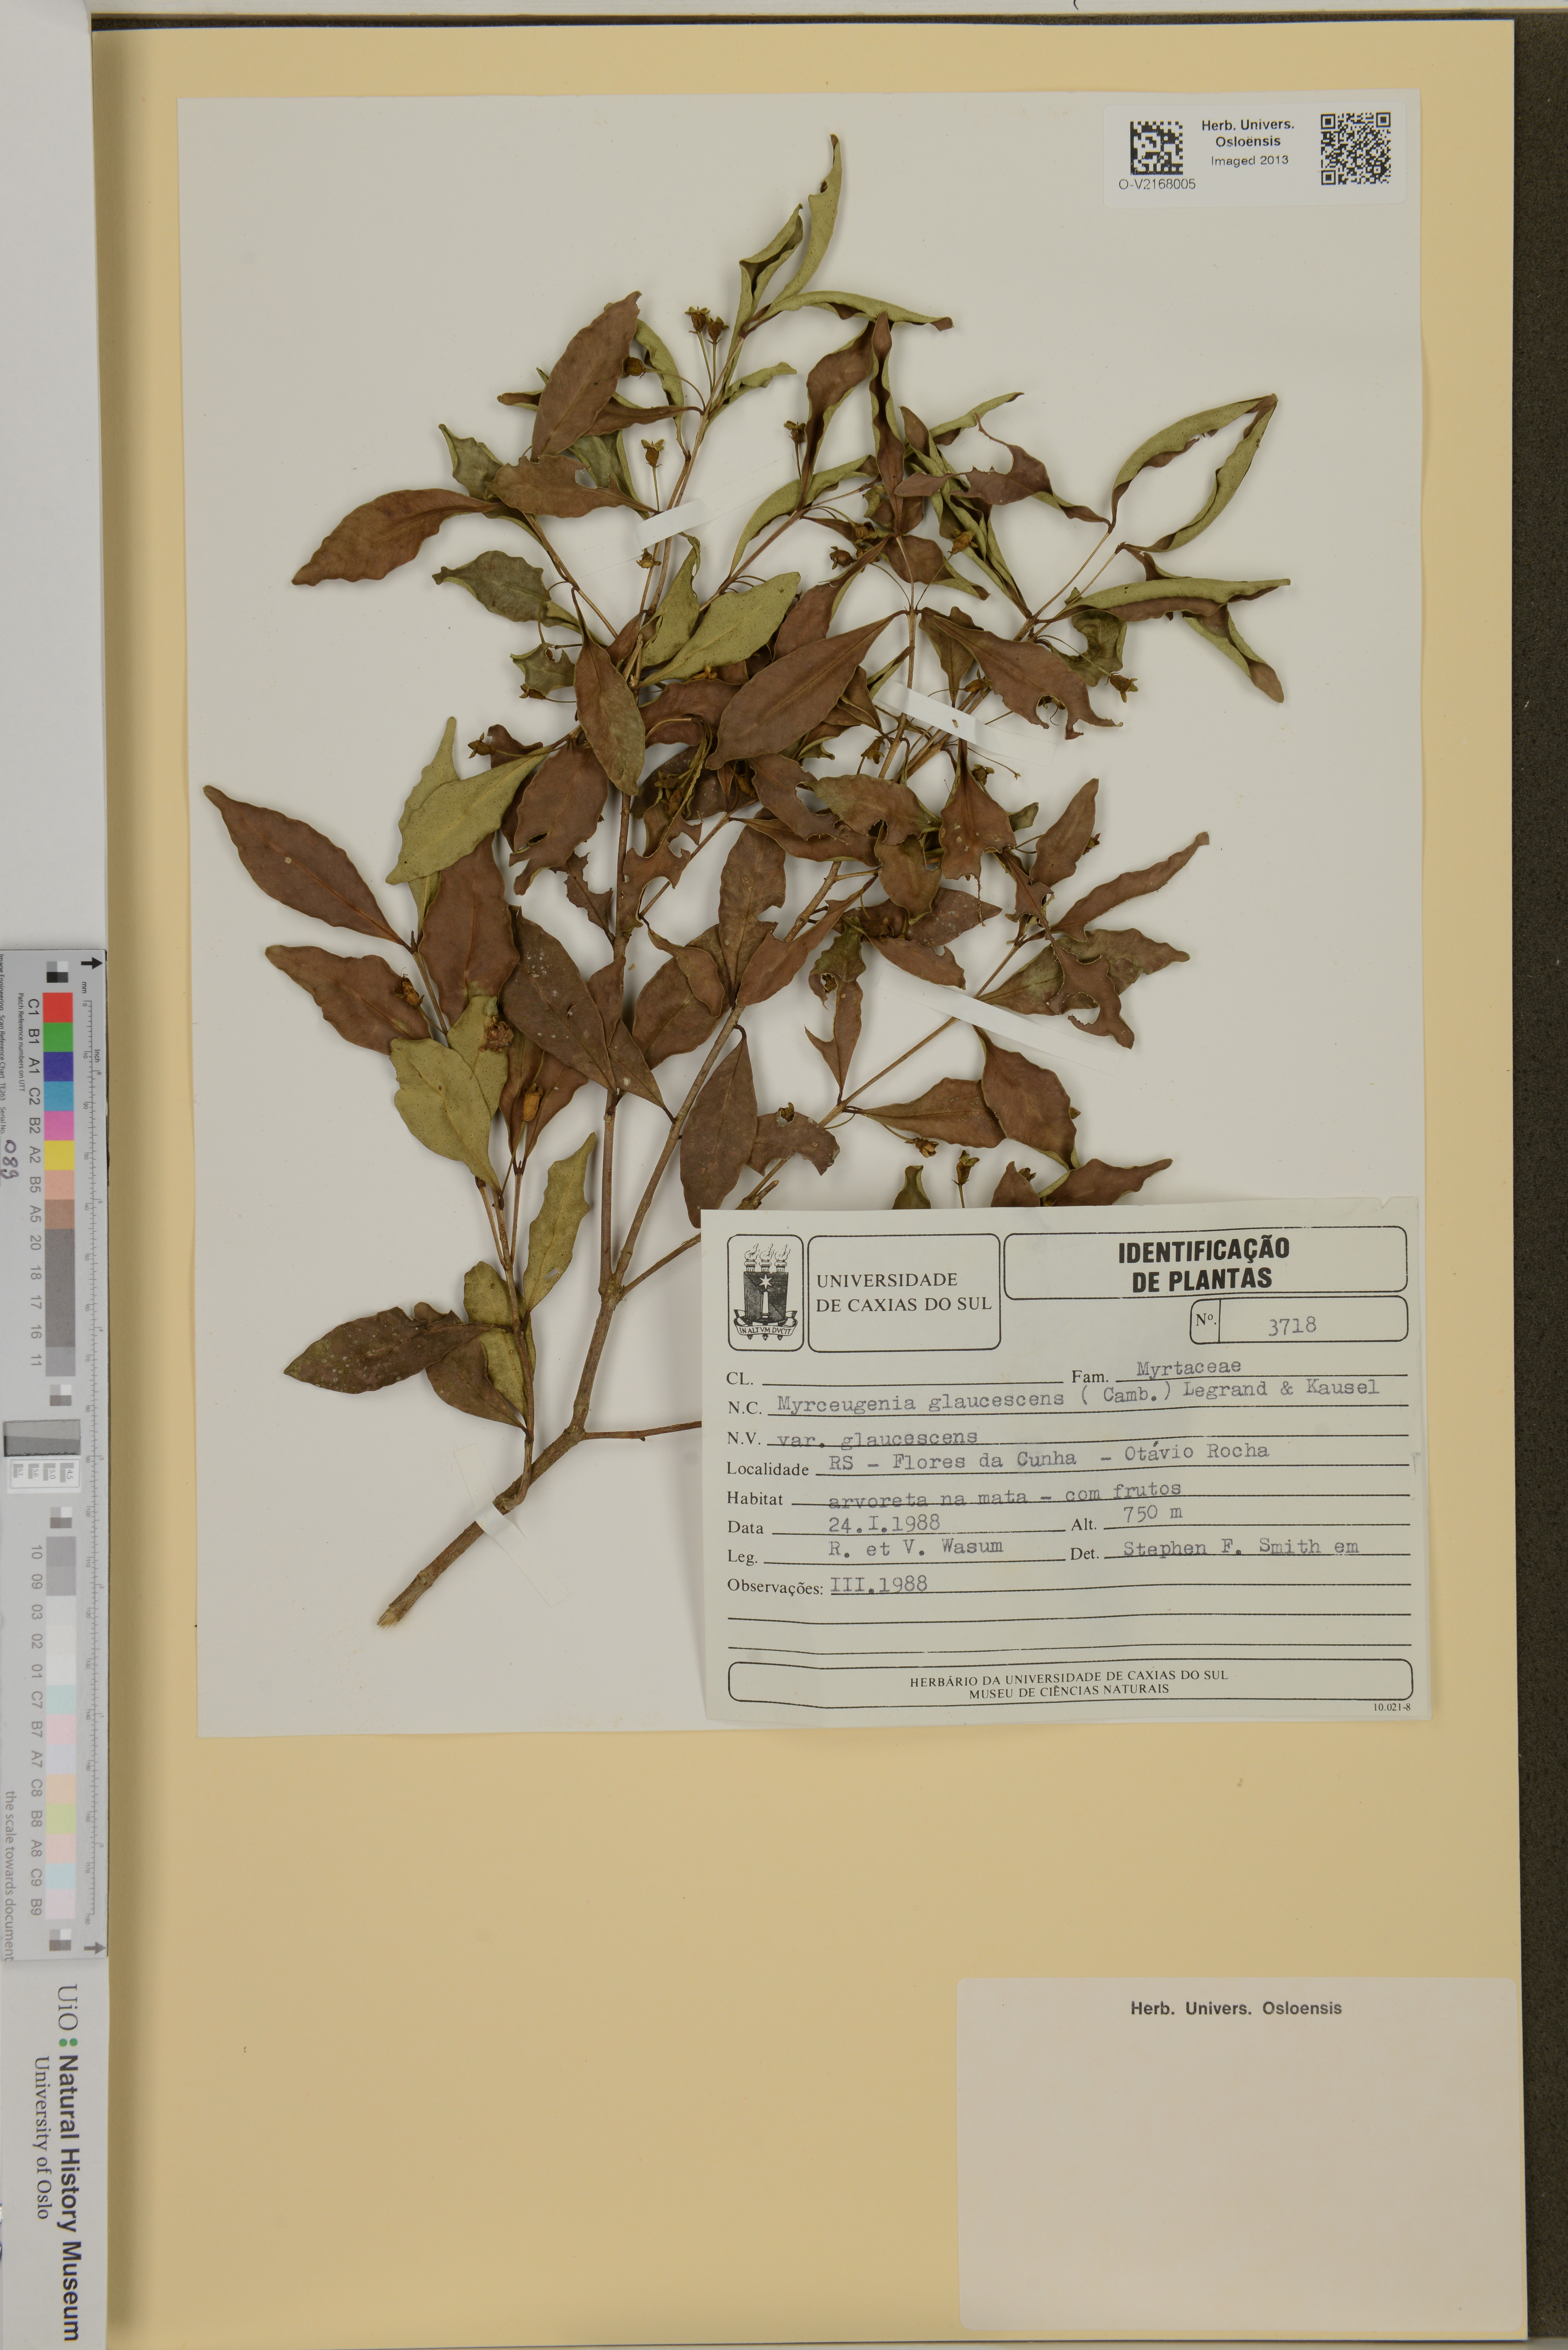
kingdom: Plantae
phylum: Tracheophyta
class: Magnoliopsida
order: Myrtales
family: Myrtaceae
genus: Myrceugenia
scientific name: Myrceugenia glaucescens
